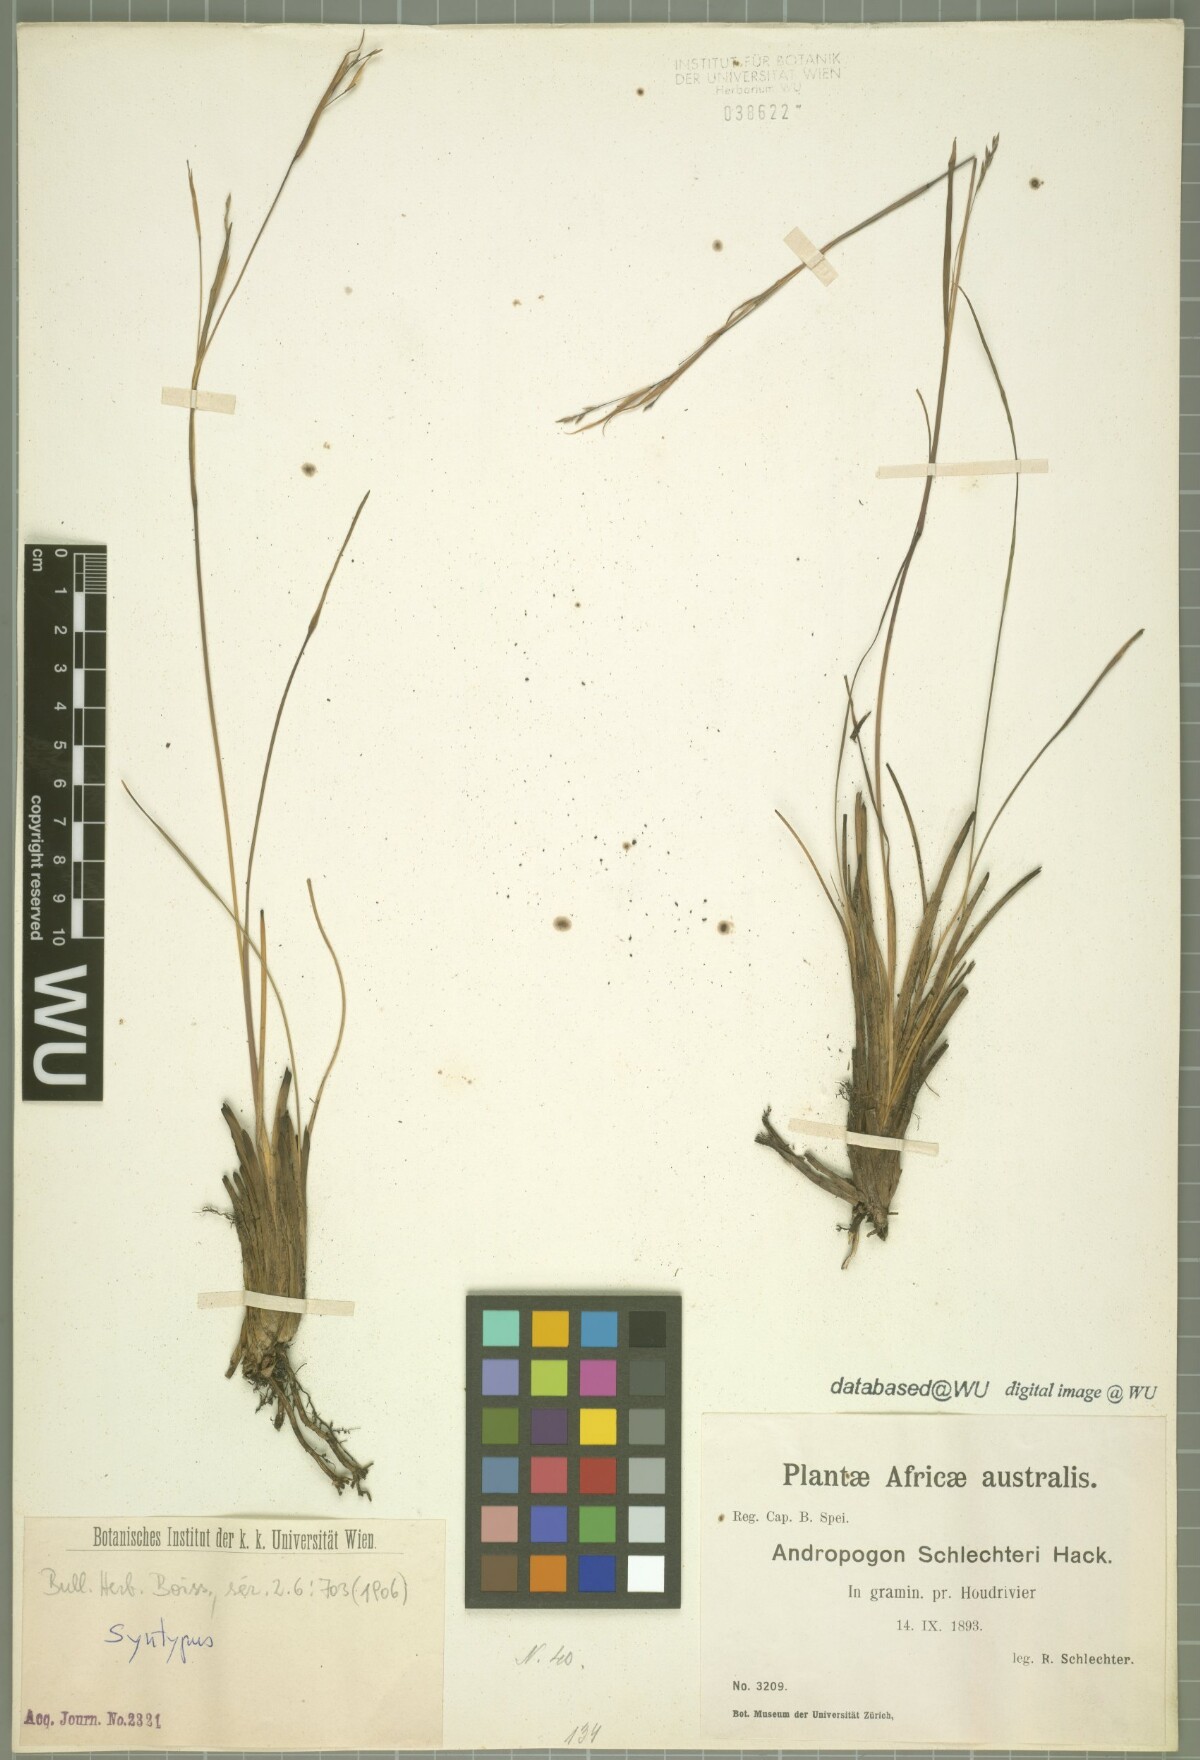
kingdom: Plantae
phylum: Tracheophyta
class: Liliopsida
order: Poales
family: Poaceae
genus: Andropogon
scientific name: Andropogon festuciformis
